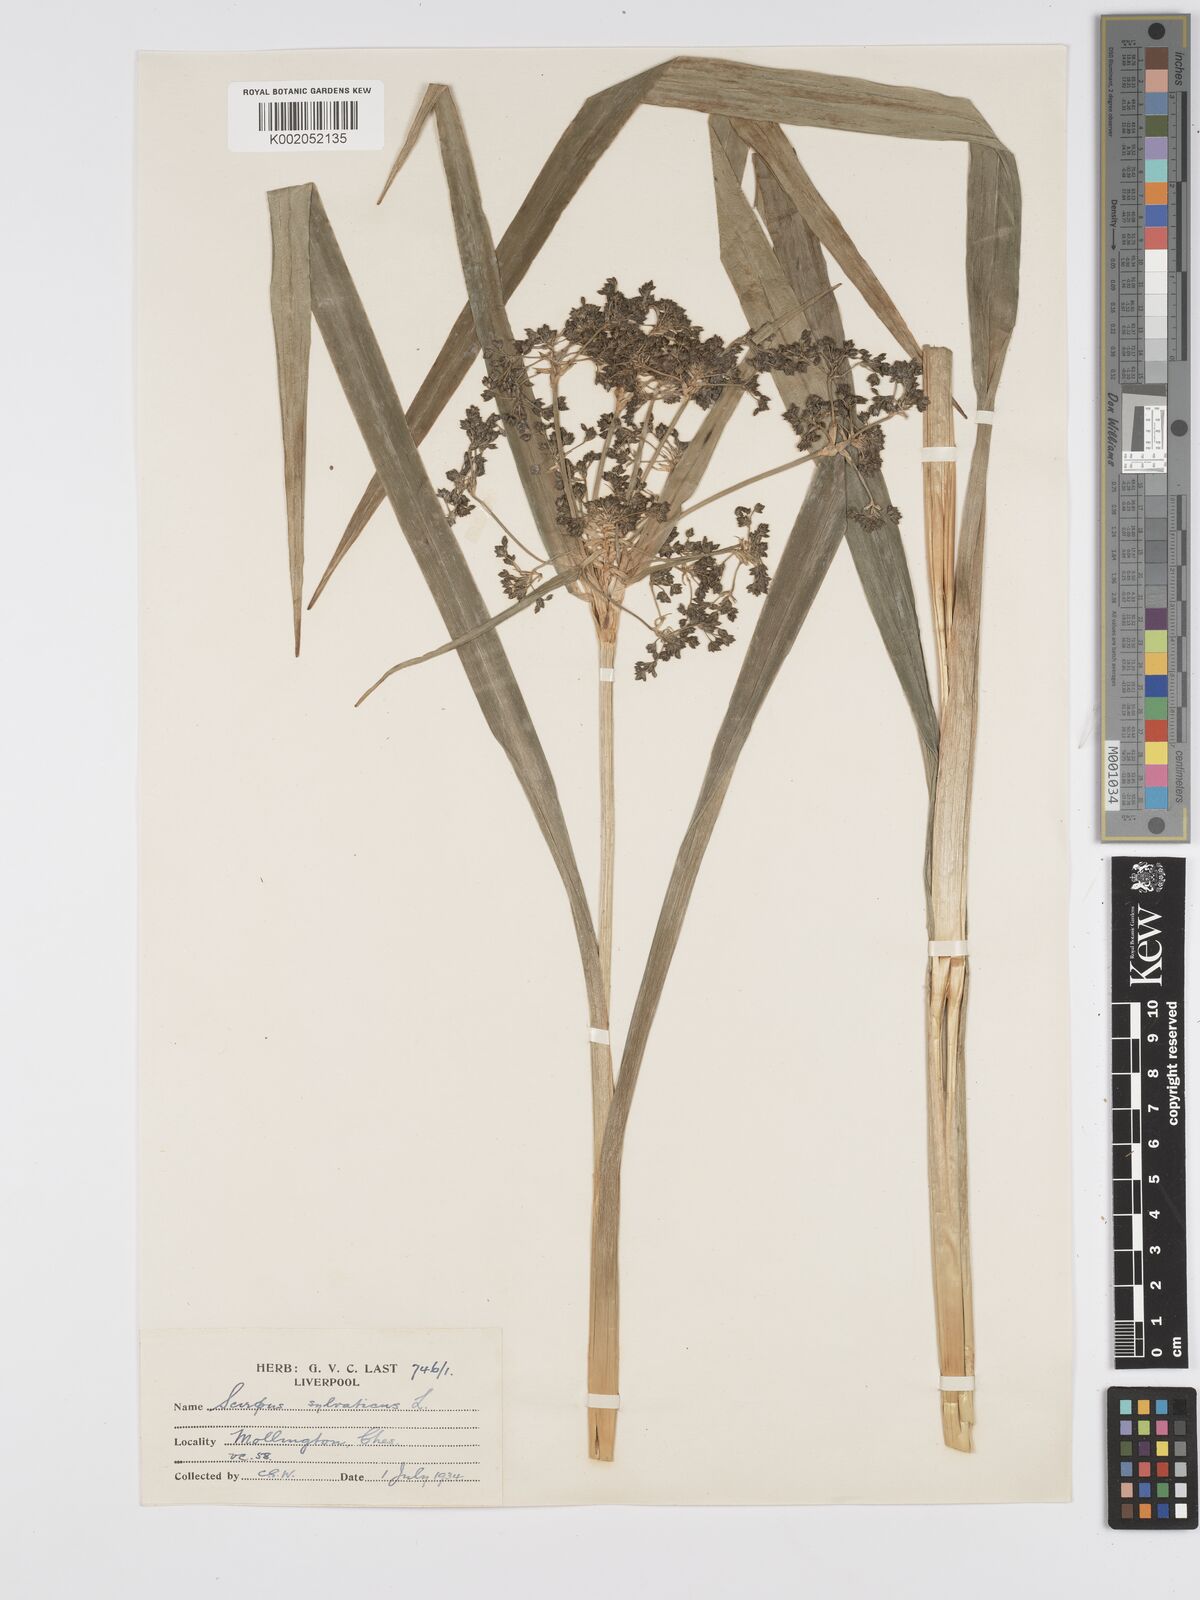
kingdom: Plantae
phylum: Tracheophyta
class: Liliopsida
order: Poales
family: Cyperaceae
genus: Scirpus
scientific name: Scirpus sylvaticus
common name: Wood club-rush
